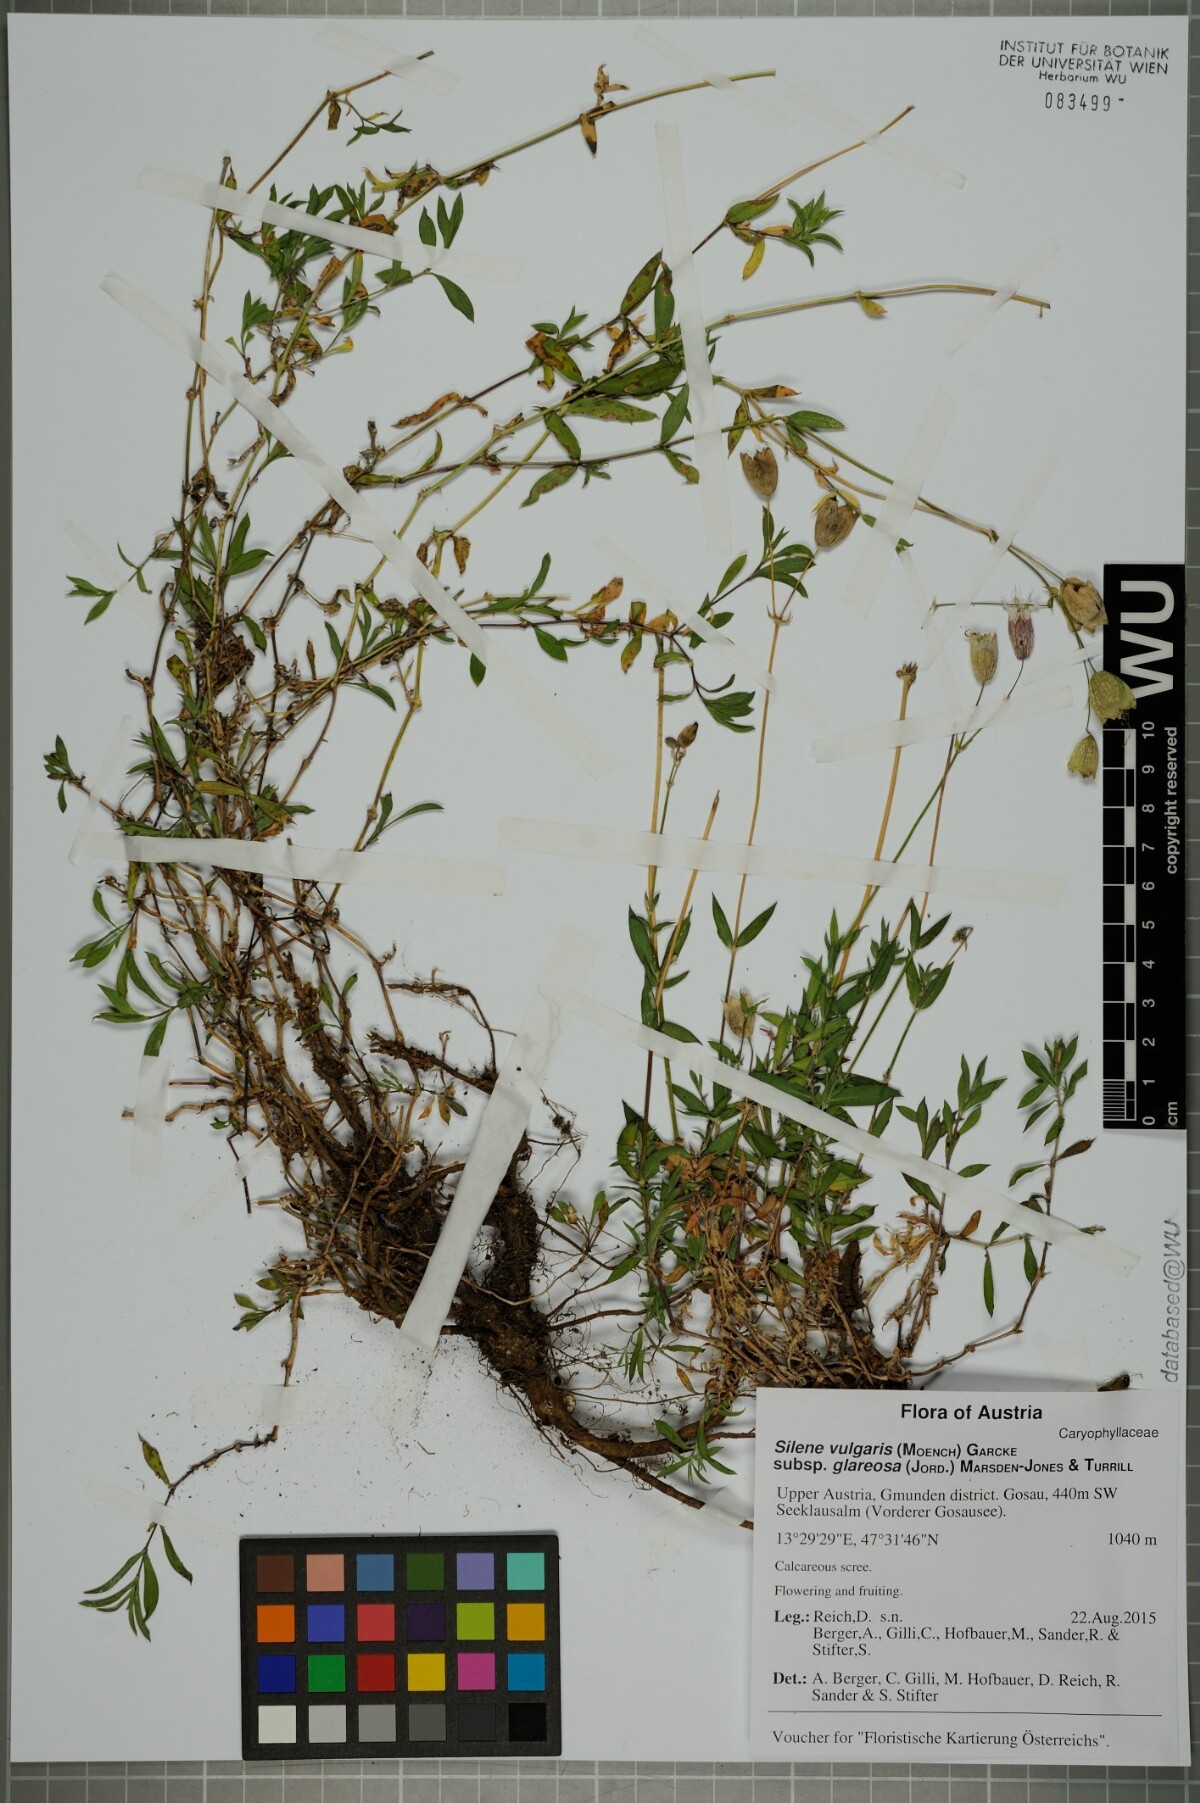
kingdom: Plantae
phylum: Tracheophyta
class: Magnoliopsida
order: Caryophyllales
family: Caryophyllaceae
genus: Silene
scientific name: Silene glareosa
